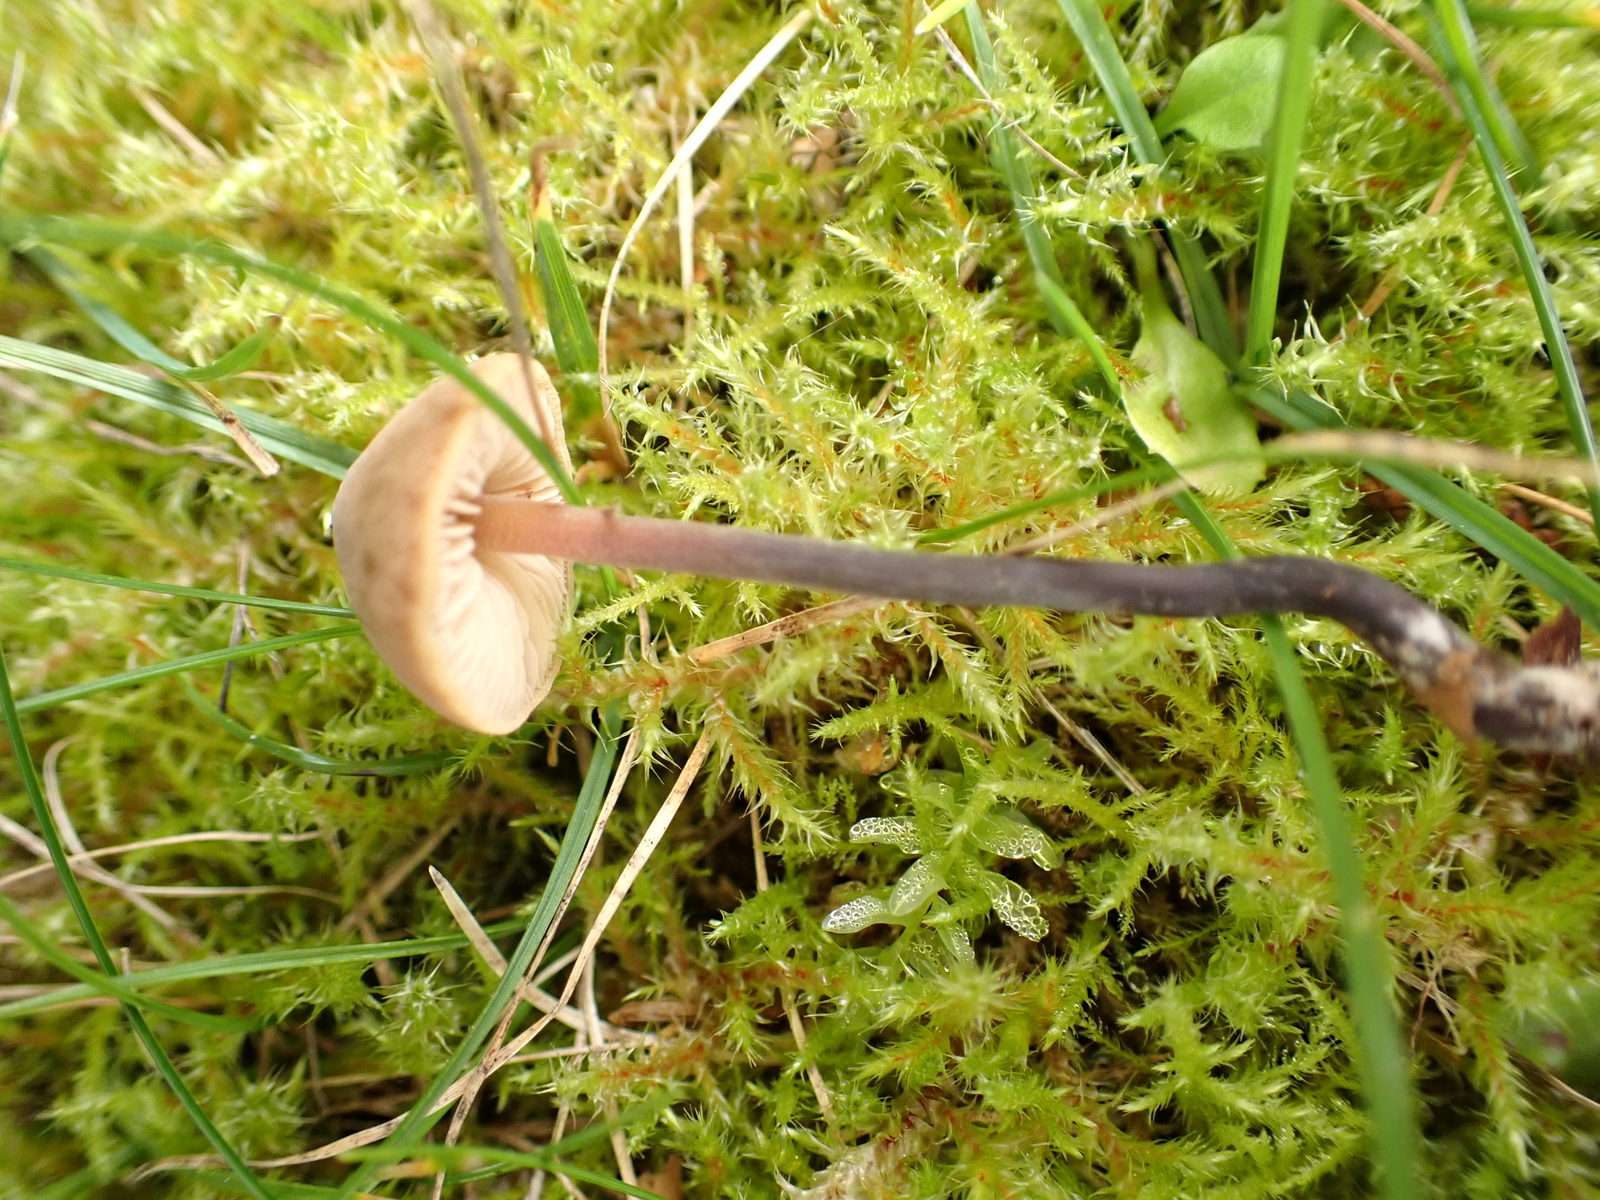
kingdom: Fungi
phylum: Basidiomycota
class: Agaricomycetes
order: Agaricales
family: Macrocystidiaceae
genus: Macrocystidia
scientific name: Macrocystidia cucumis
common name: agurkehat
